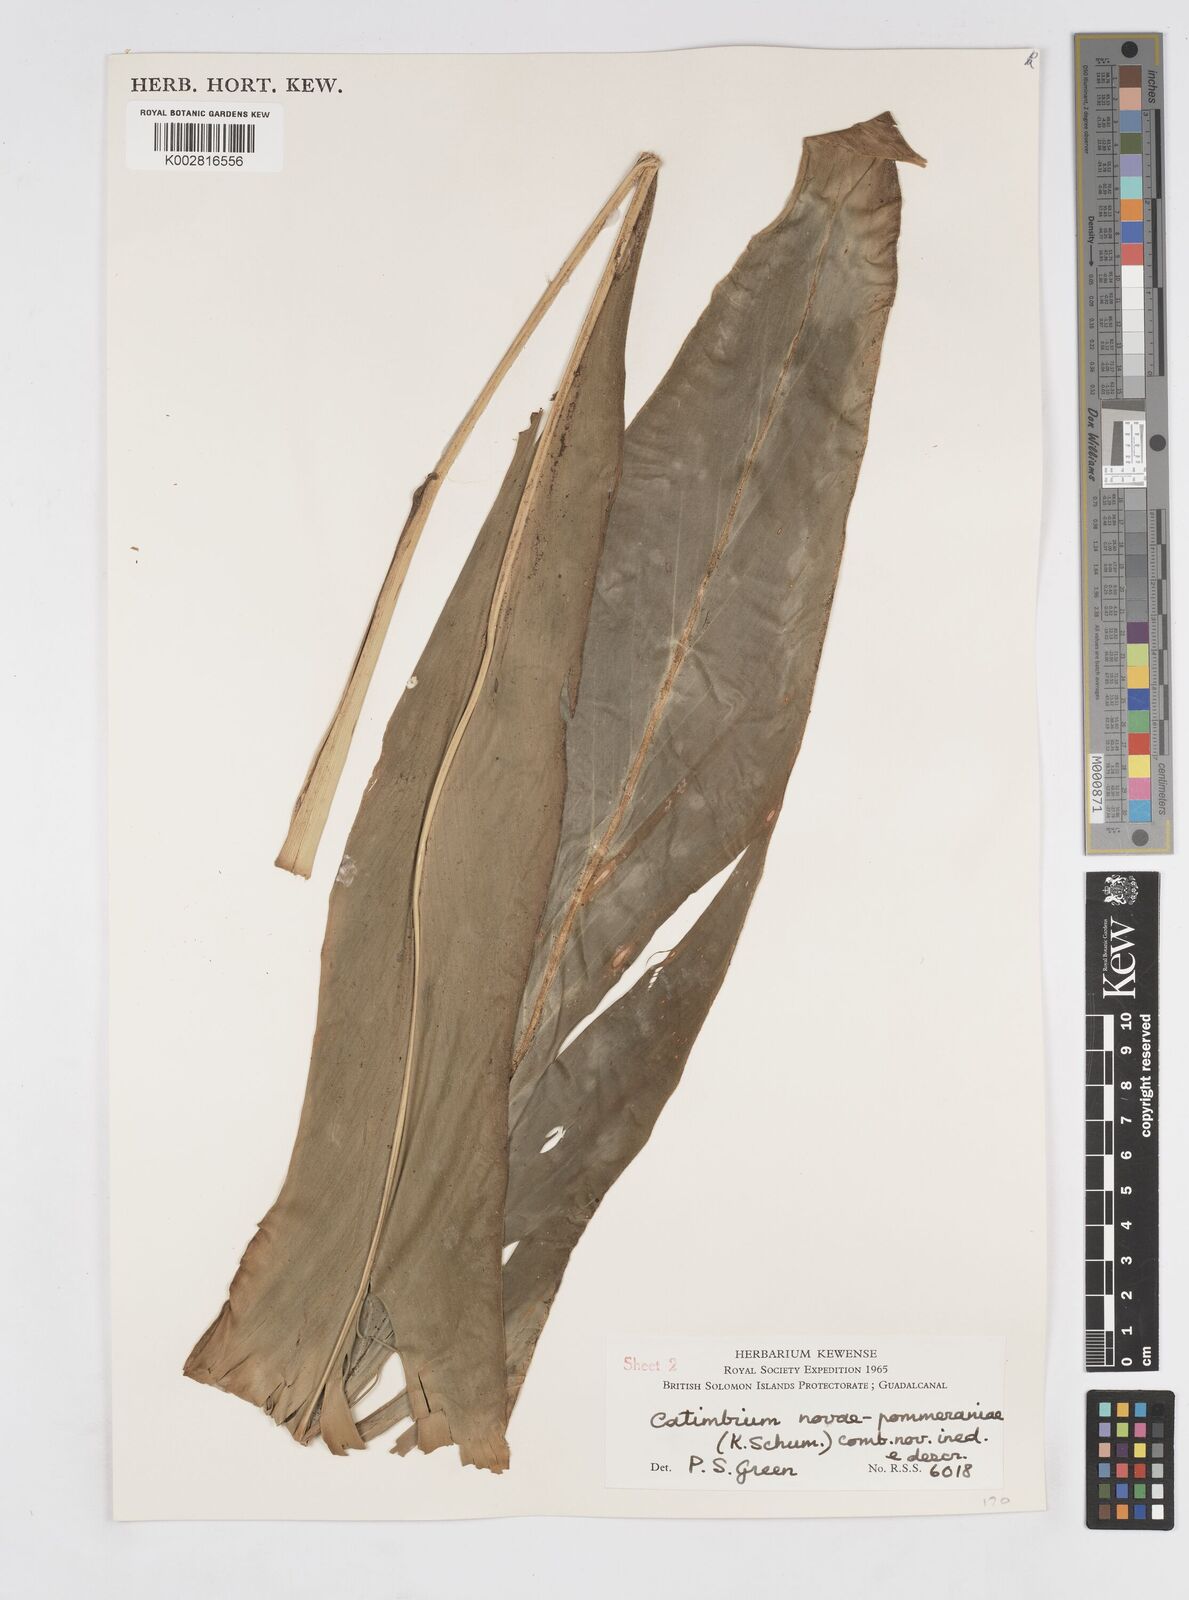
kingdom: Plantae
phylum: Tracheophyta
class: Liliopsida
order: Zingiberales
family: Zingiberaceae
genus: Alpinia
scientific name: Alpinia novae-pommeraniae
